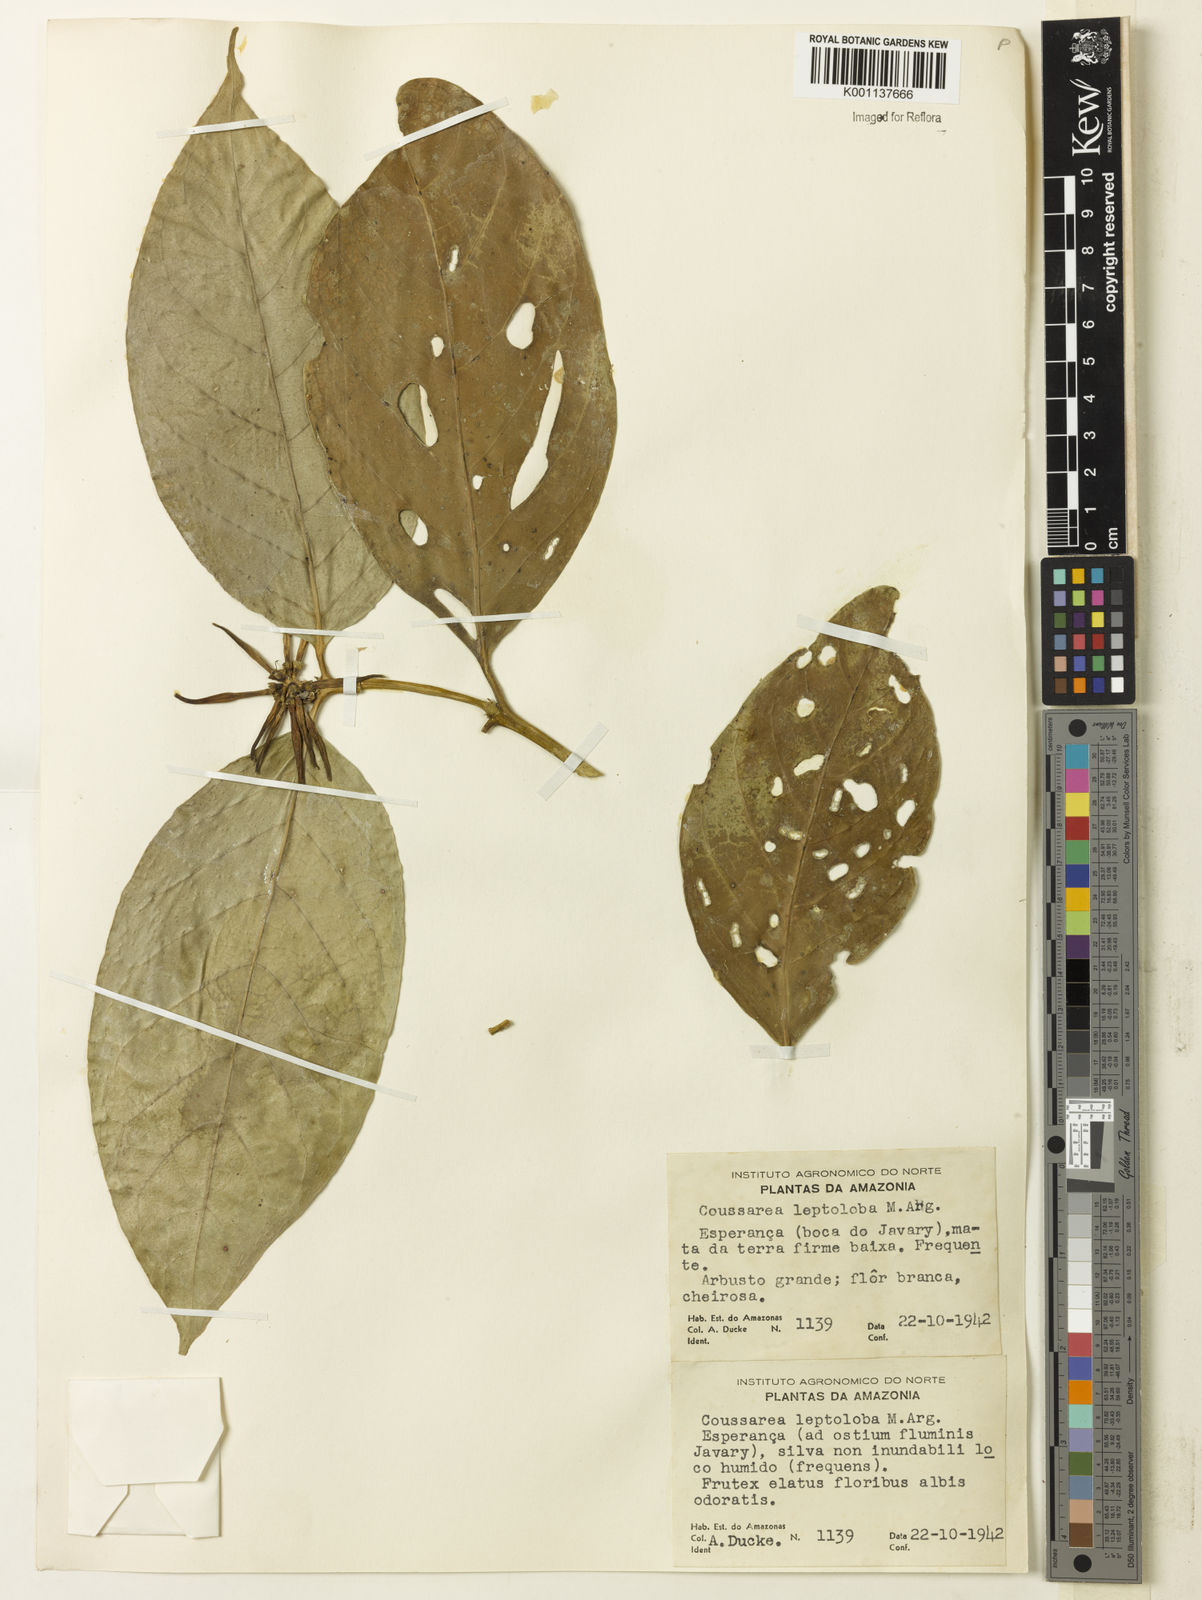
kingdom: Plantae
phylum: Tracheophyta
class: Magnoliopsida
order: Gentianales
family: Rubiaceae
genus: Coussarea
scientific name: Coussarea
